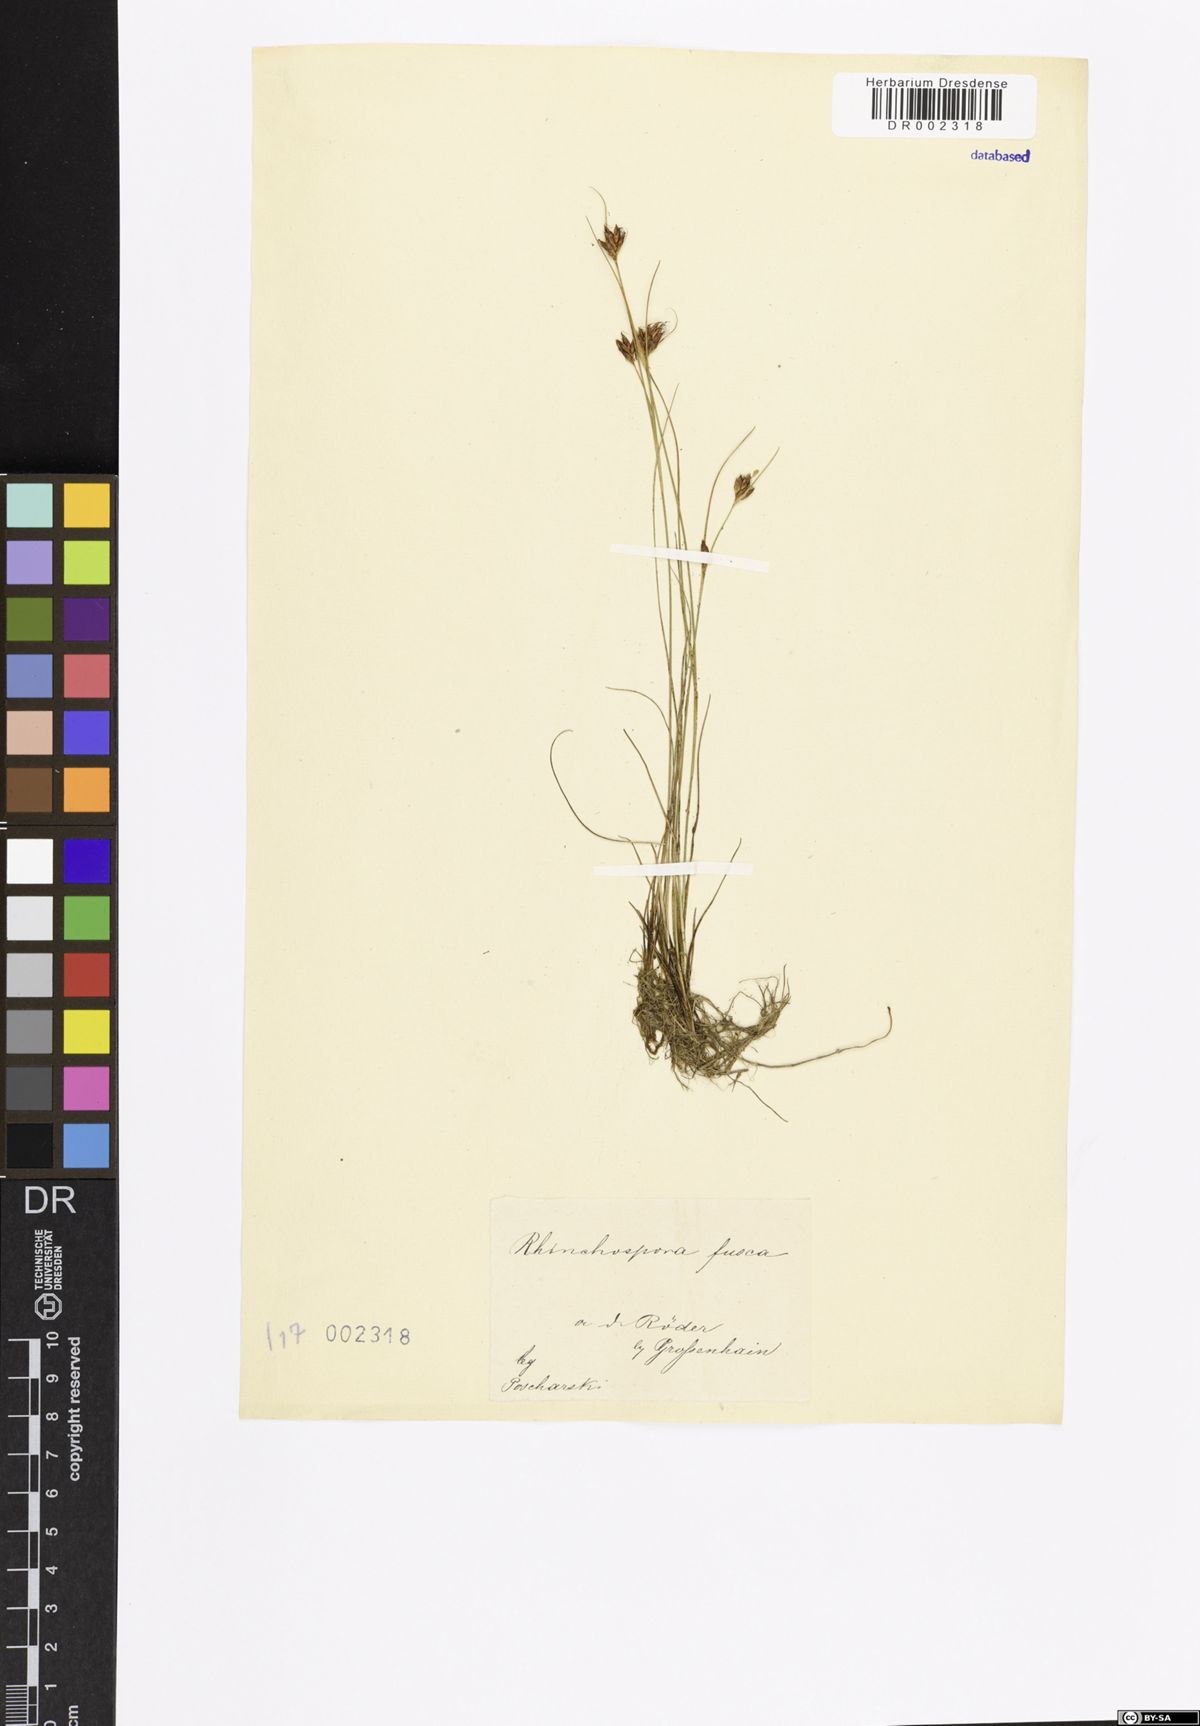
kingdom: Plantae
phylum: Tracheophyta
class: Liliopsida
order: Poales
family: Cyperaceae
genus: Rhynchospora
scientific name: Rhynchospora fusca
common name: Brown beak-sedge
